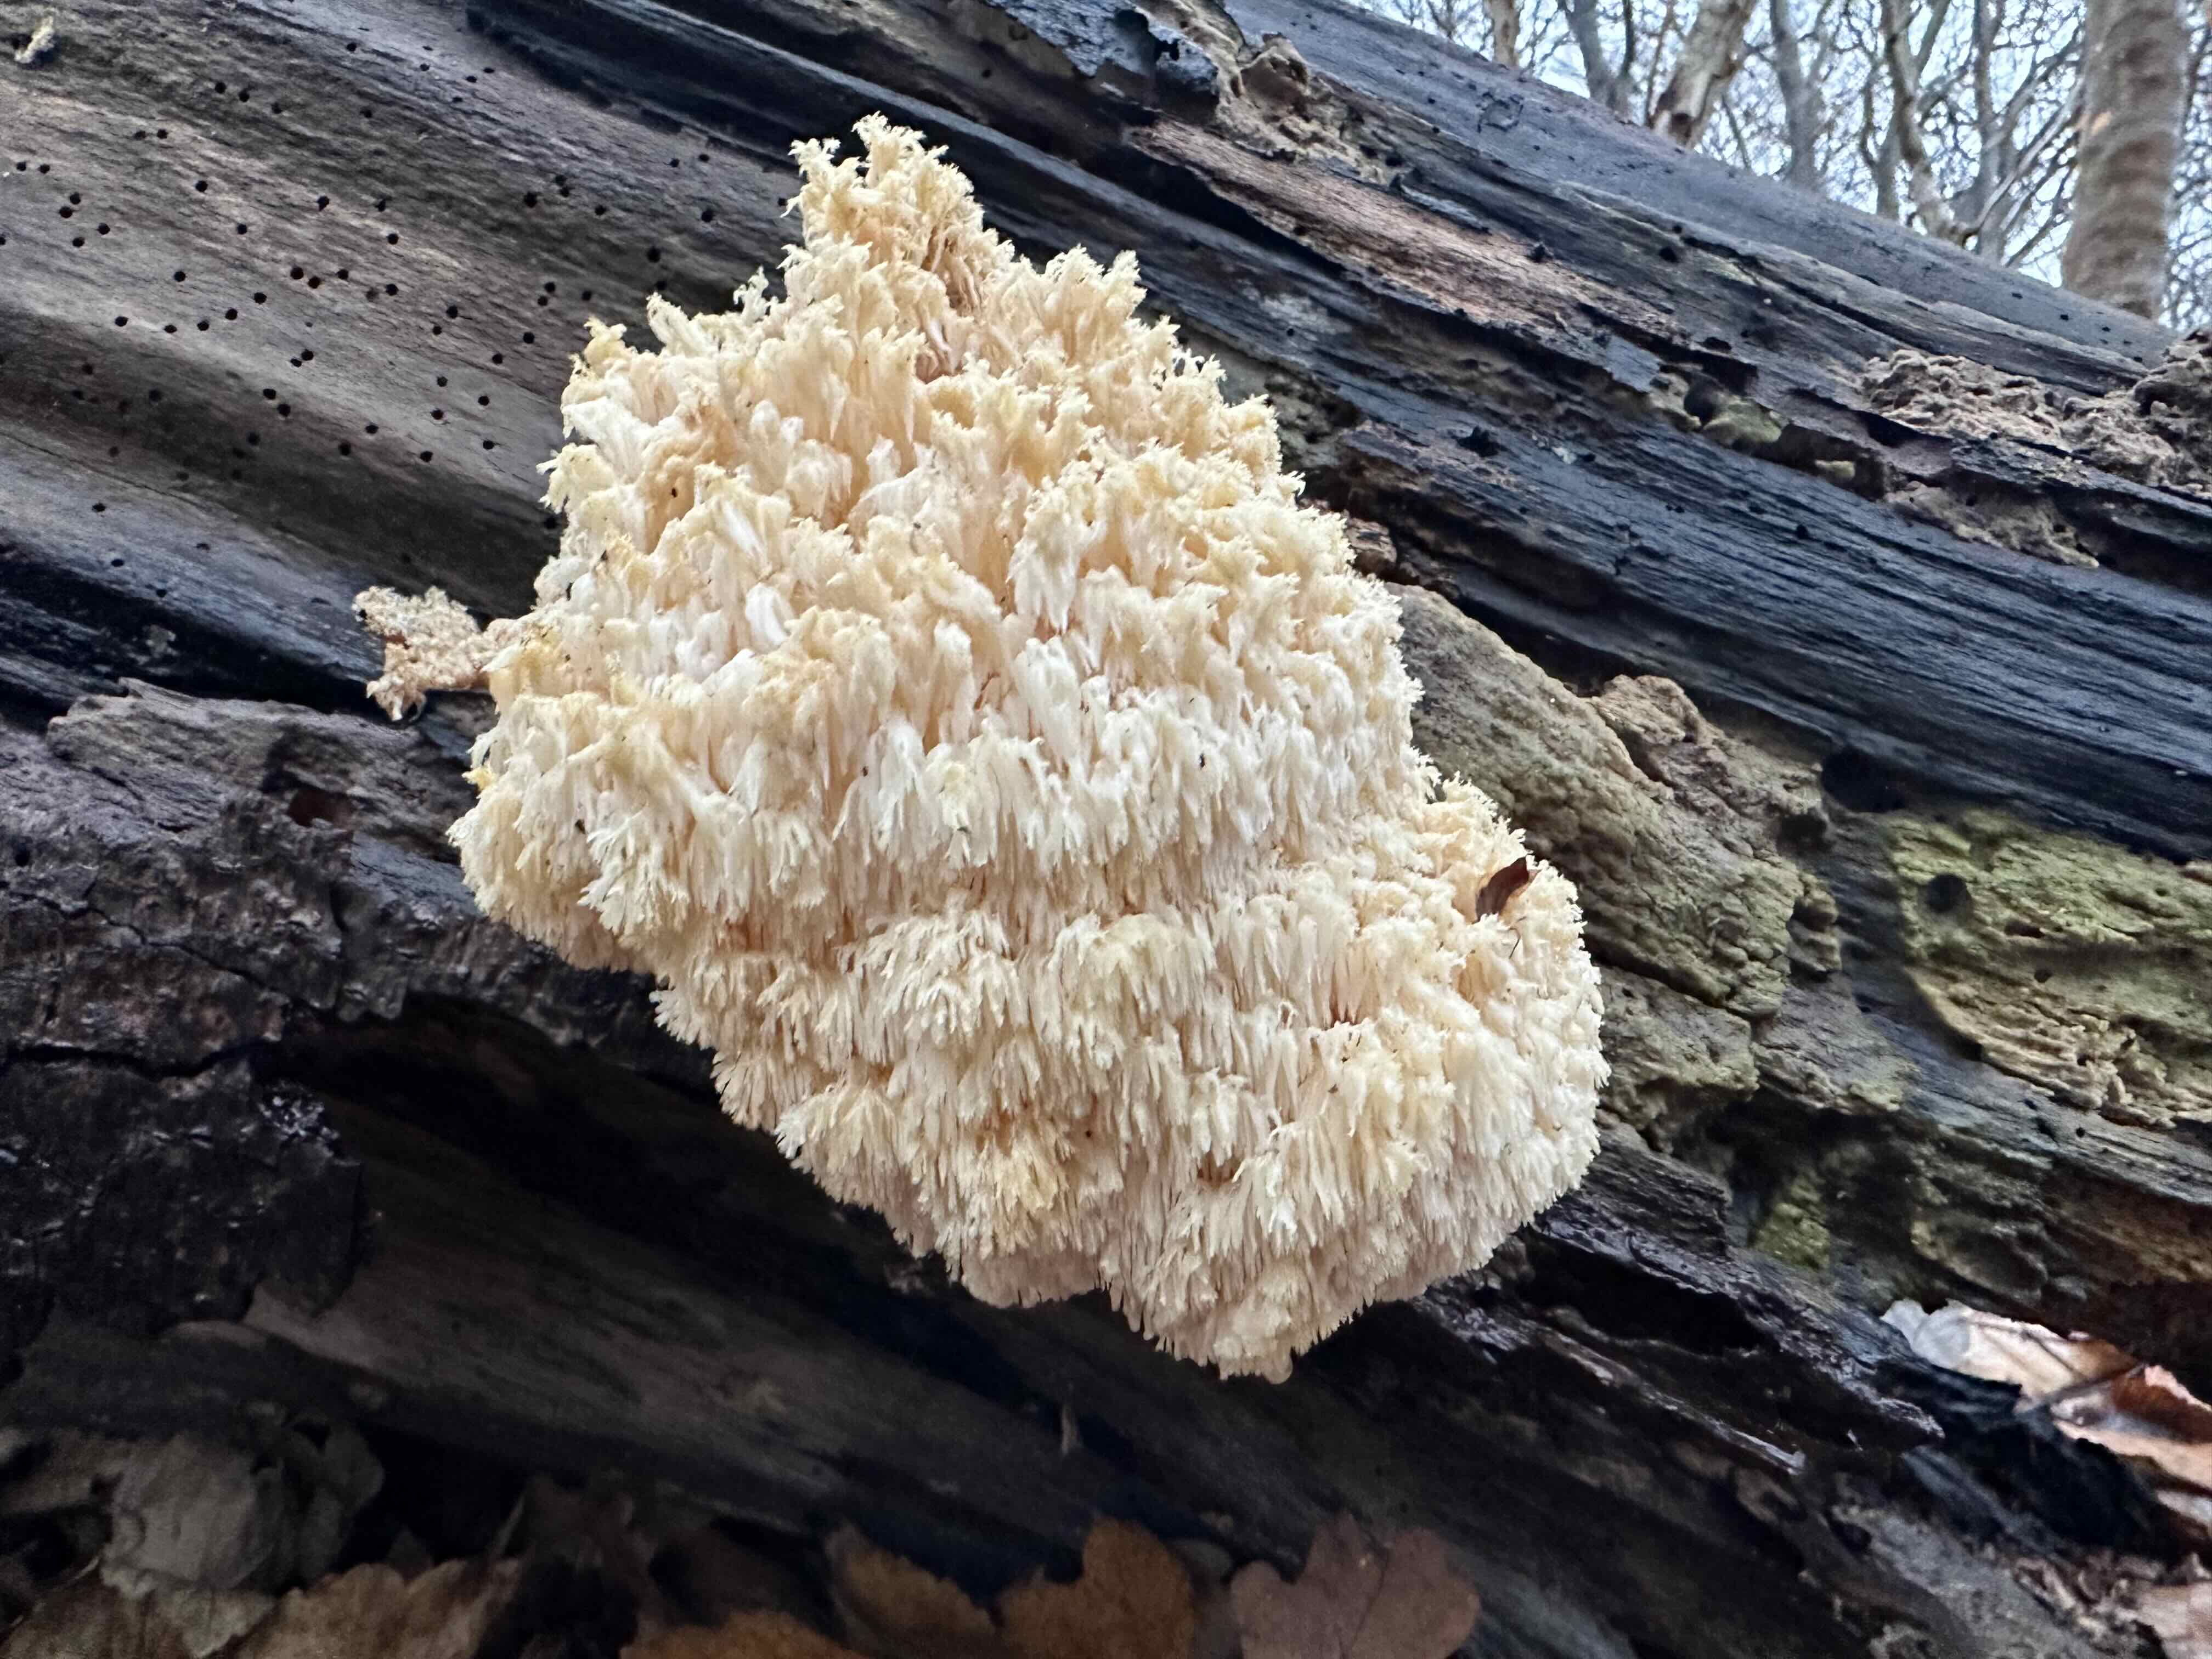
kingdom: Fungi
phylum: Basidiomycota
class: Agaricomycetes
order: Russulales
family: Hericiaceae
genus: Hericium
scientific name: Hericium coralloides
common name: koralpigsvamp
